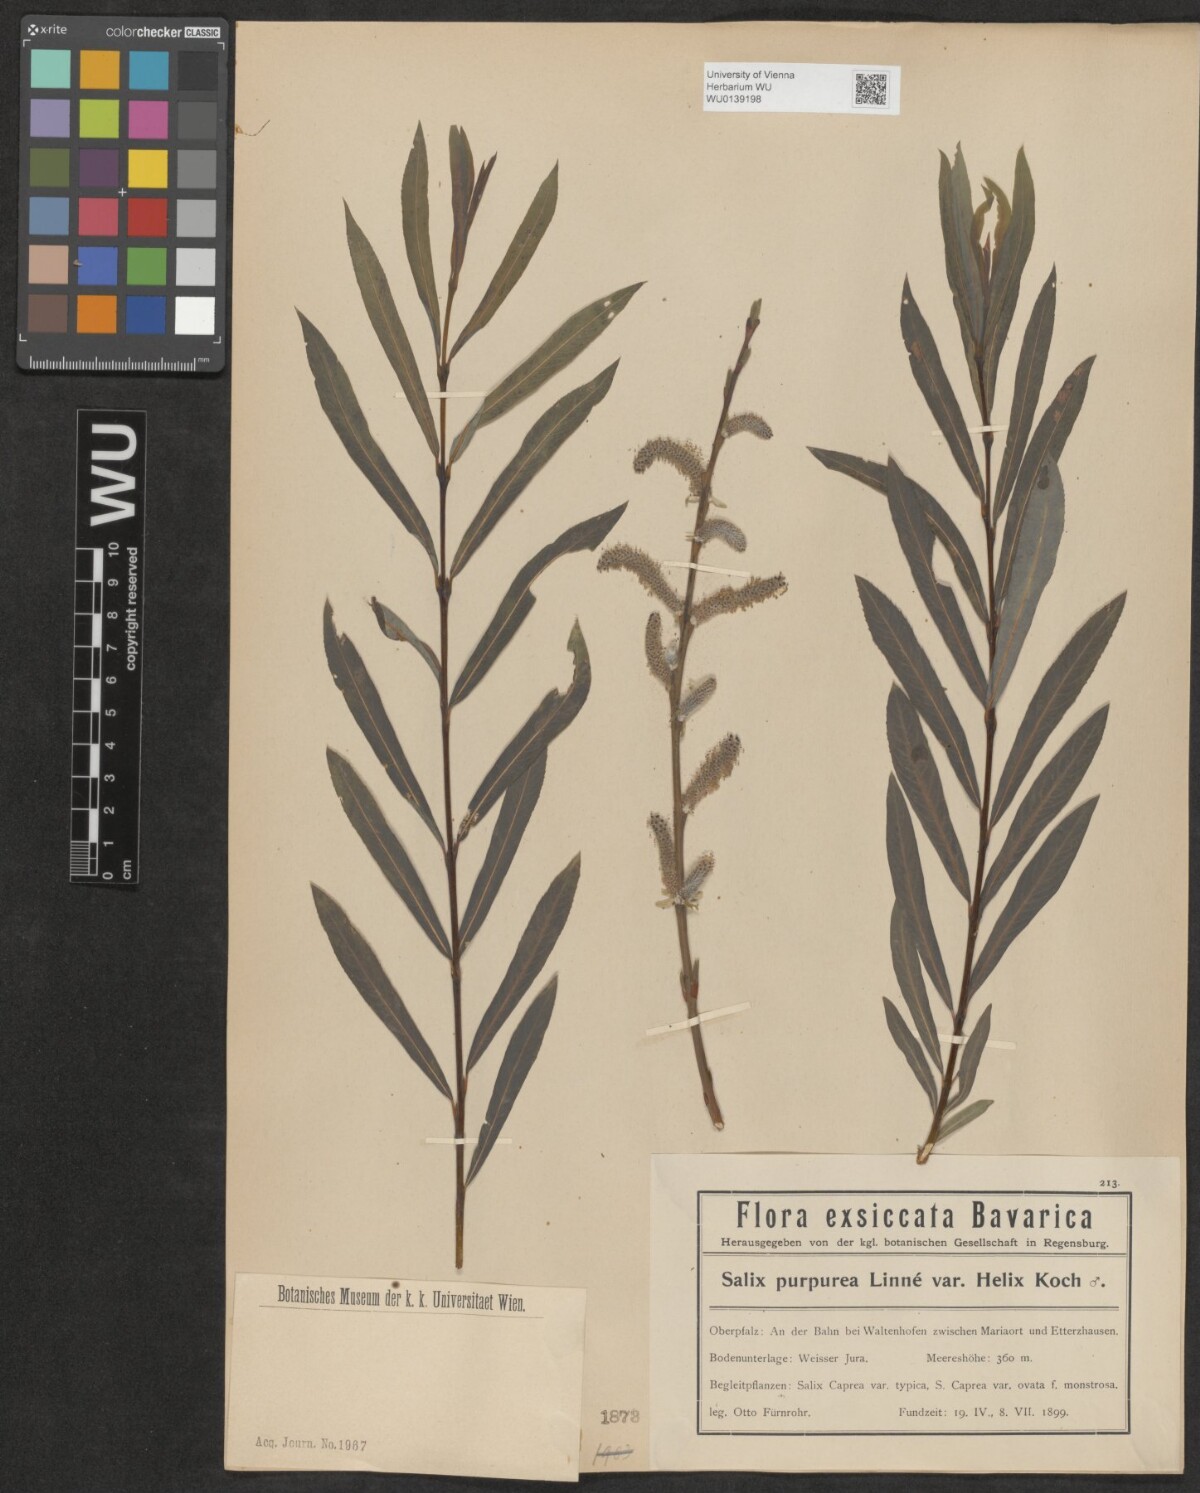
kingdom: Plantae
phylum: Tracheophyta
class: Magnoliopsida
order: Malpighiales
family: Salicaceae
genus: Salix
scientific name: Salix purpurea
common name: Purple willow
